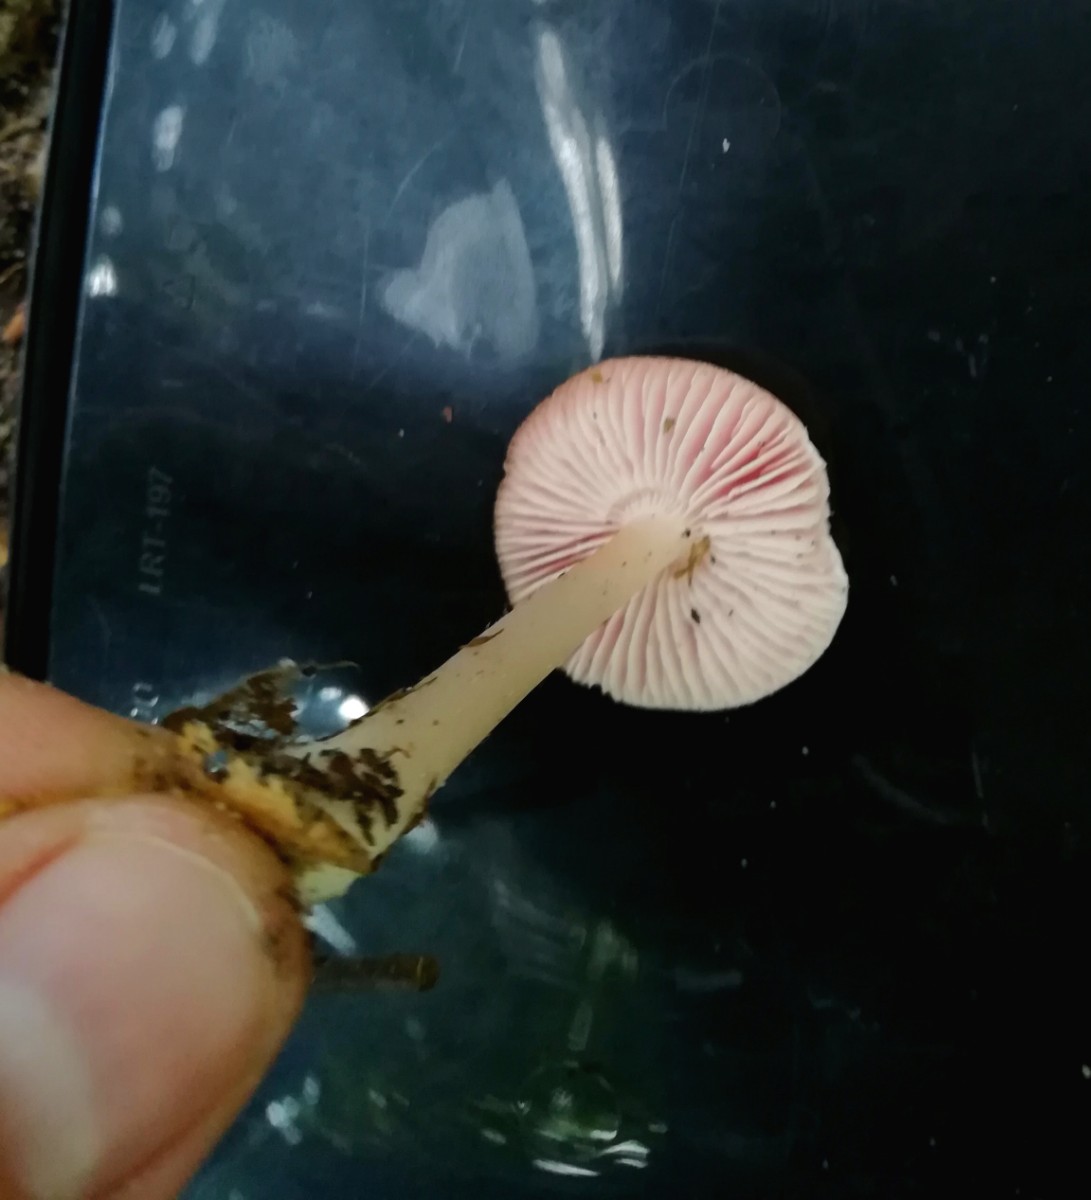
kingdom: Fungi
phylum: Basidiomycota
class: Agaricomycetes
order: Agaricales
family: Mycenaceae
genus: Mycena
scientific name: Mycena rosea
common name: rosa huesvamp
